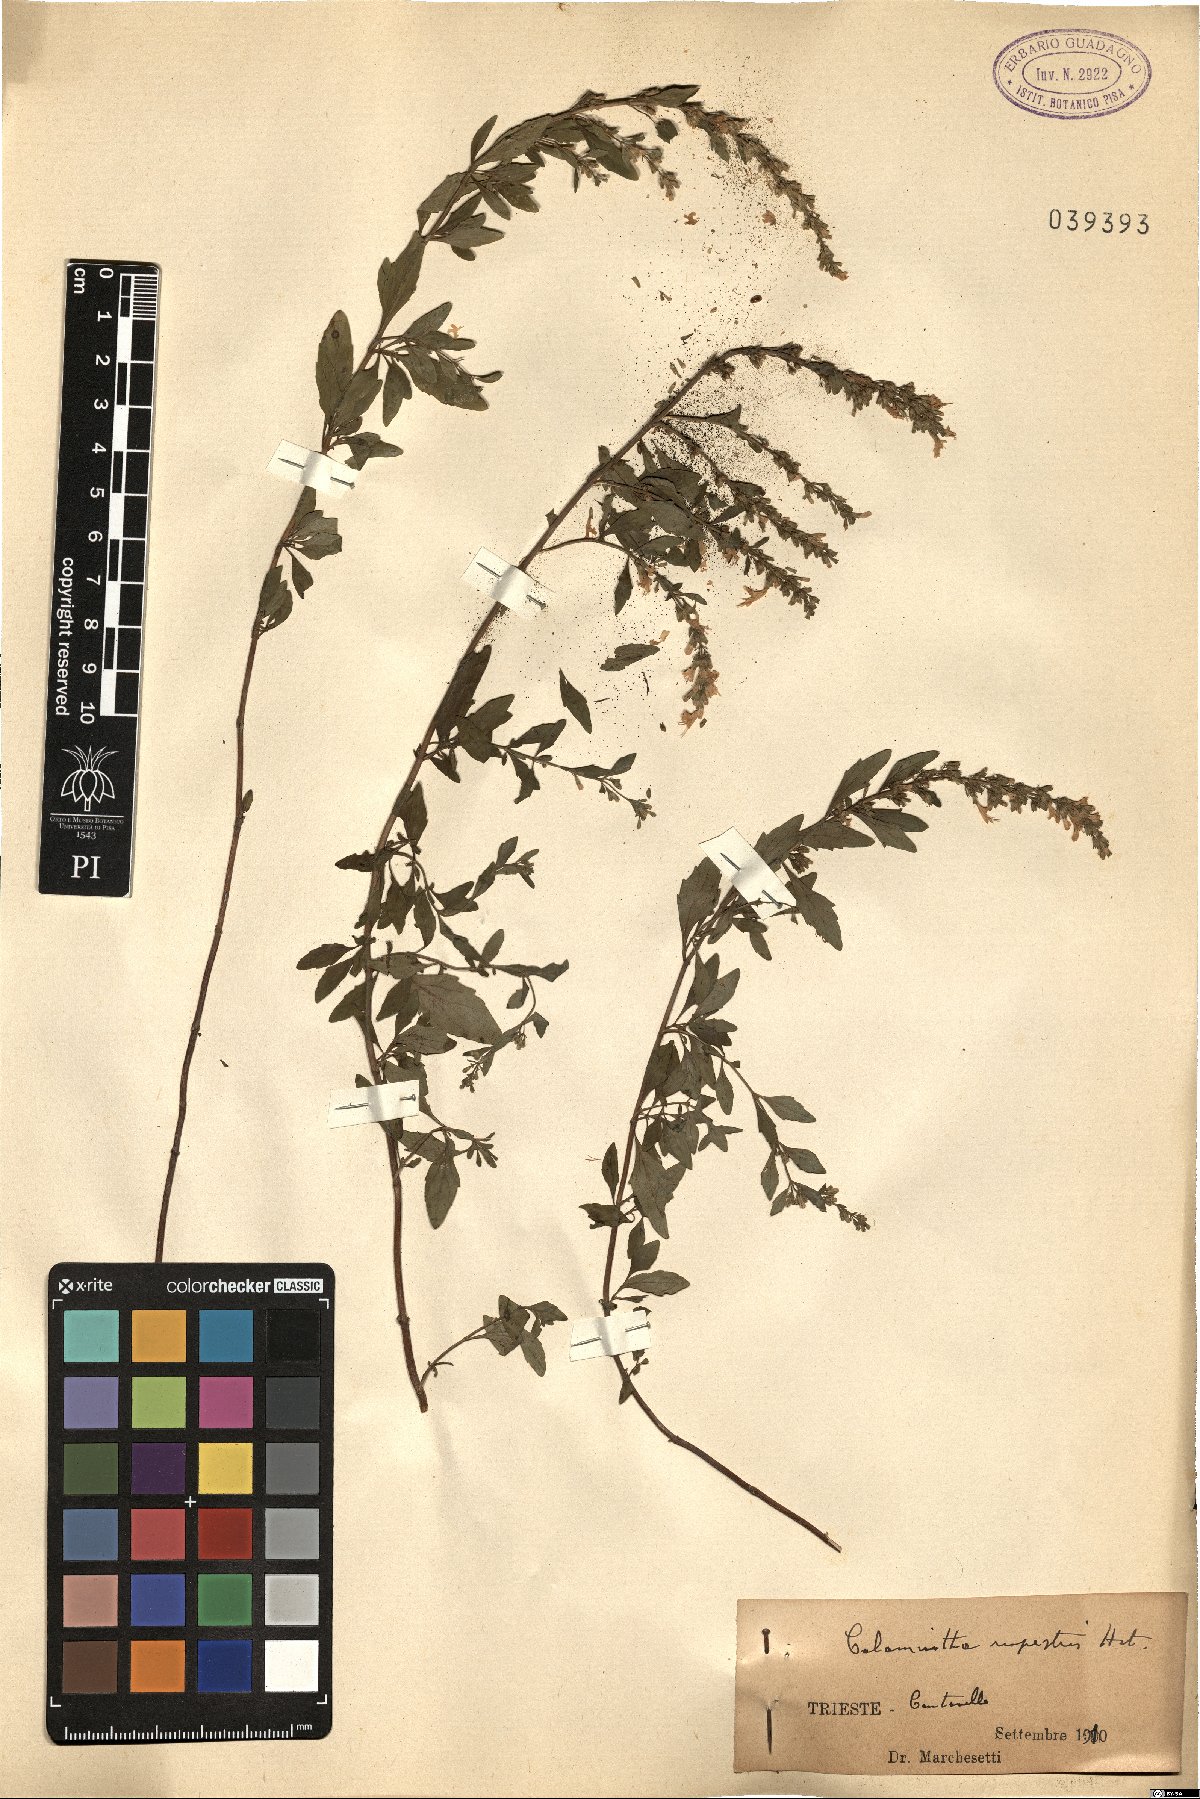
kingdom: Plantae
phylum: Tracheophyta
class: Magnoliopsida
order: Lamiales
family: Lamiaceae
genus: Clinopodium
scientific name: Clinopodium album
